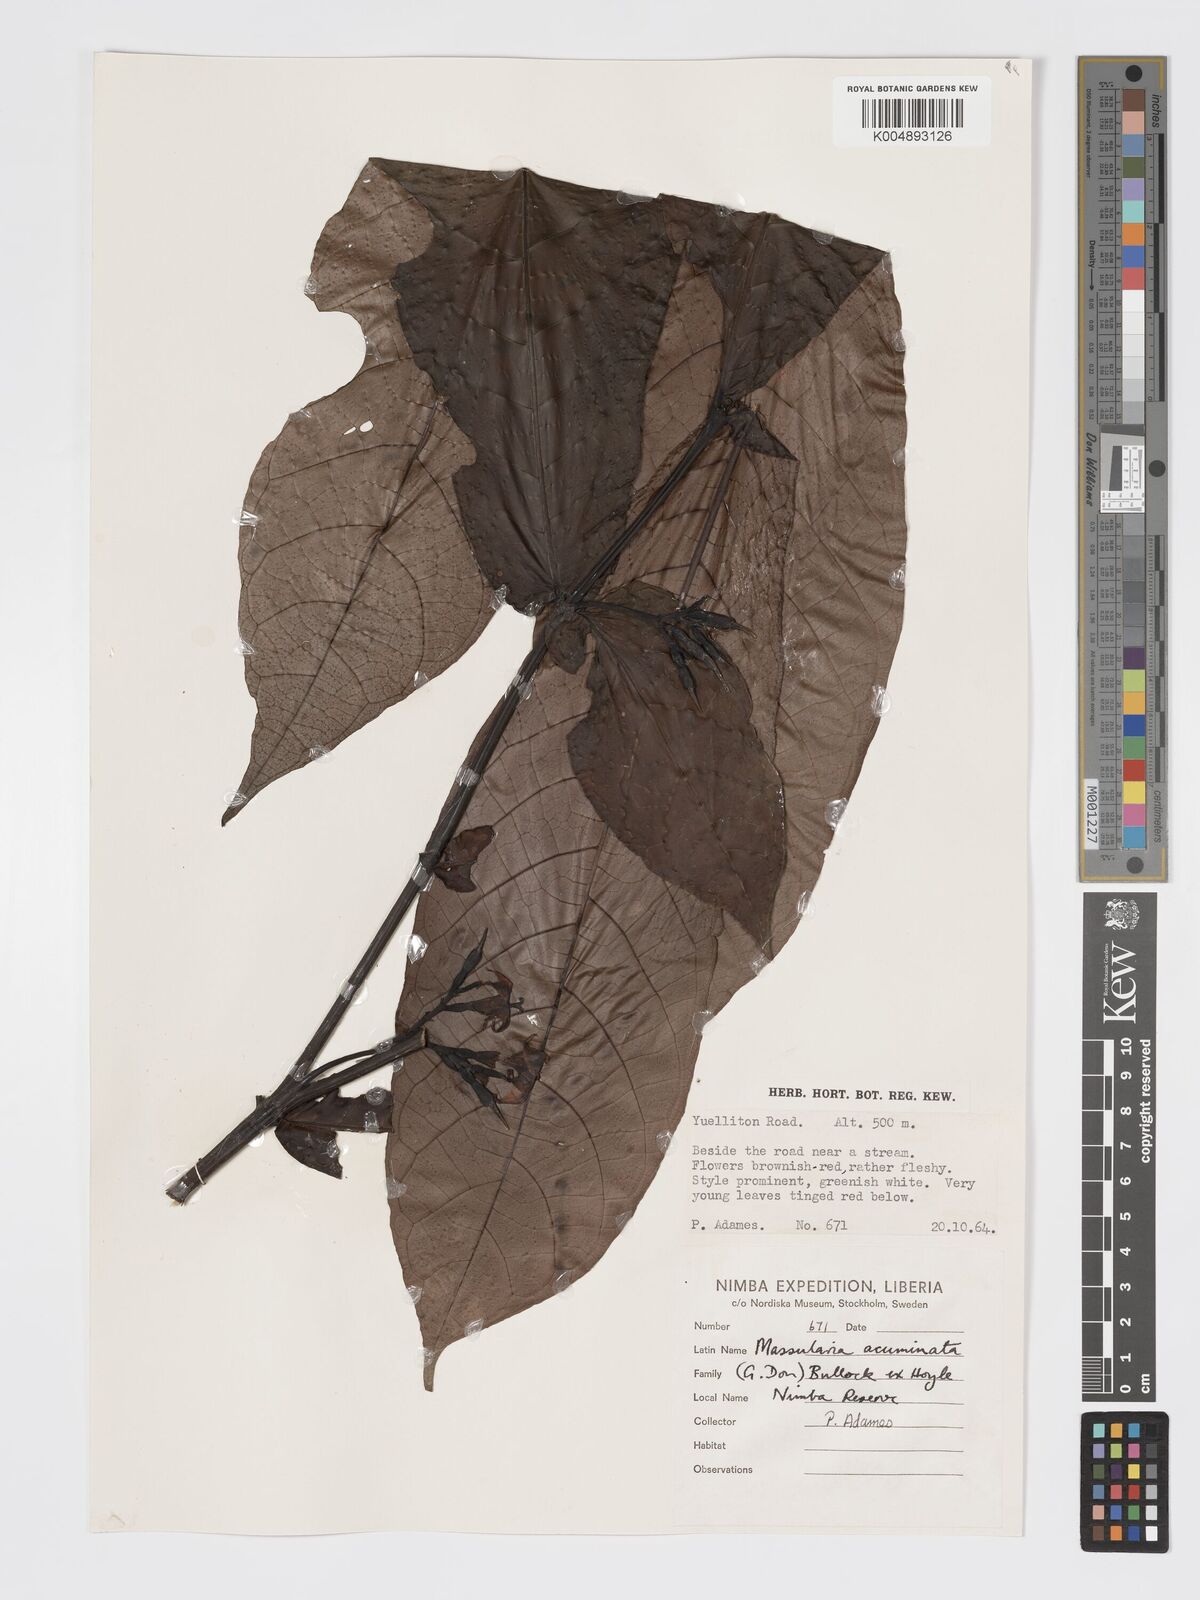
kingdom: Plantae
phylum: Tracheophyta
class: Magnoliopsida
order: Gentianales
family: Rubiaceae
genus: Massularia
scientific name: Massularia acuminata
